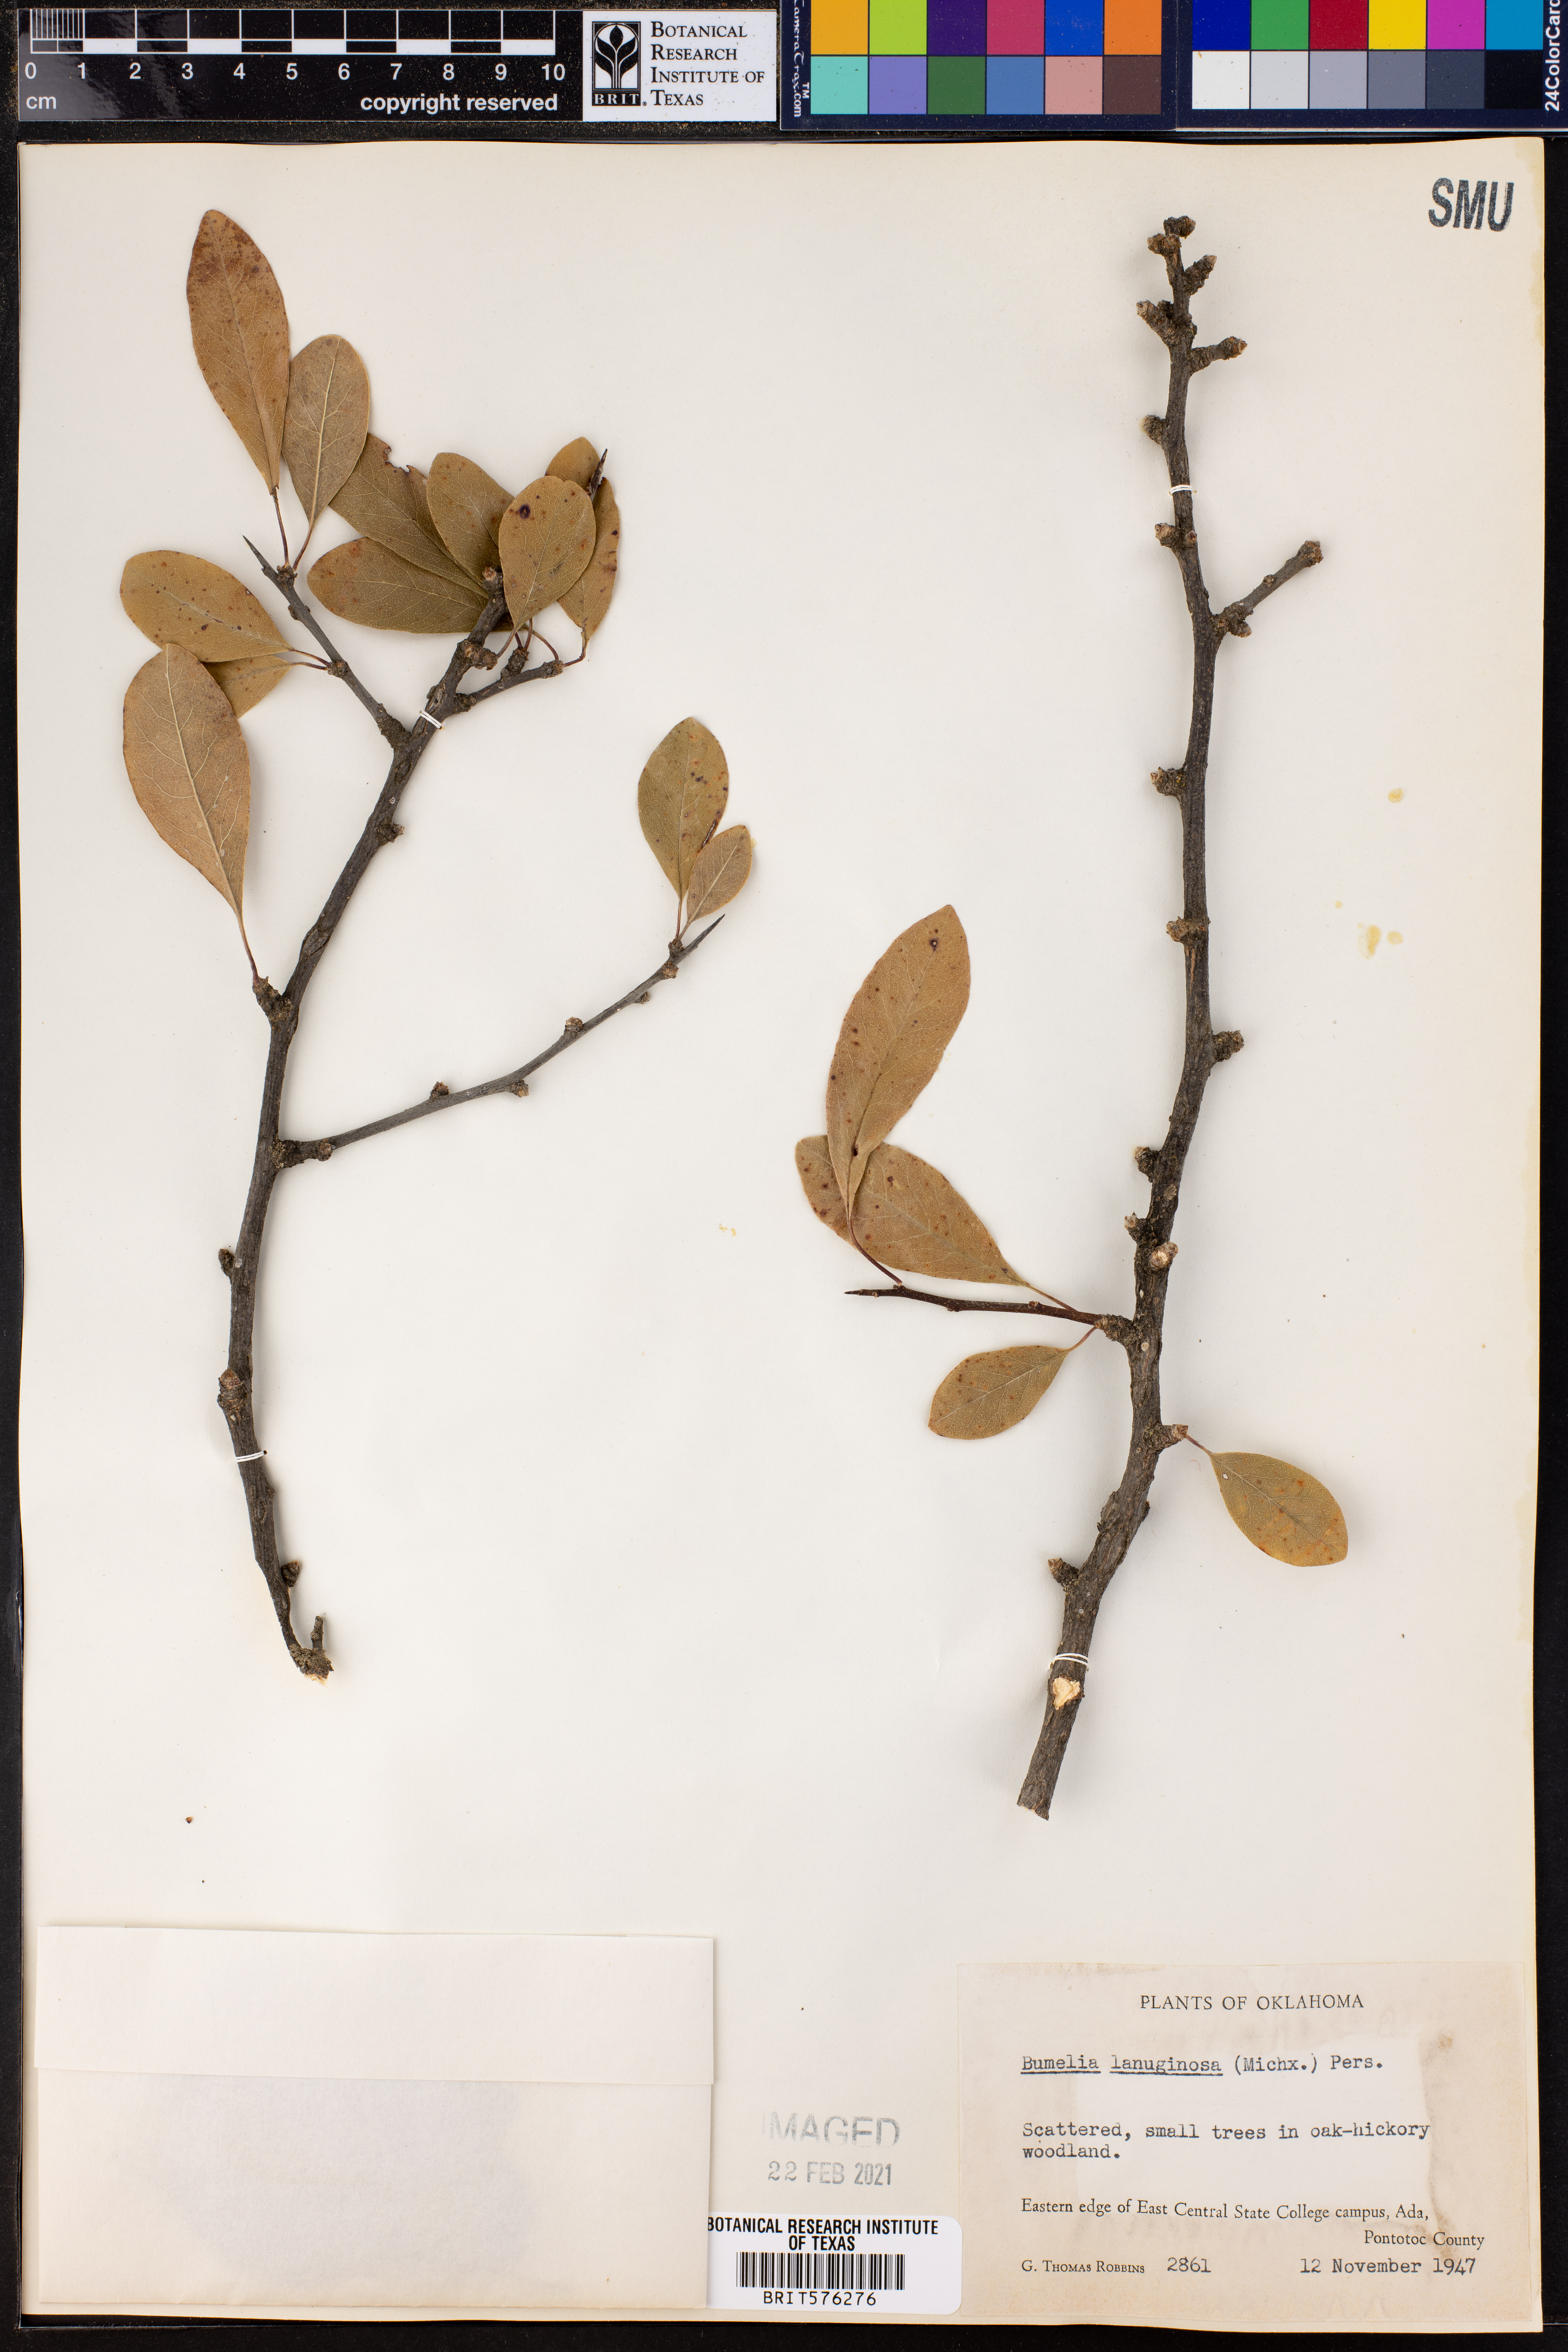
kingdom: Plantae
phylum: Tracheophyta
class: Magnoliopsida
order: Ericales
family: Sapotaceae
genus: Sideroxylon
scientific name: Sideroxylon lanuginosum
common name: Chittamwood
